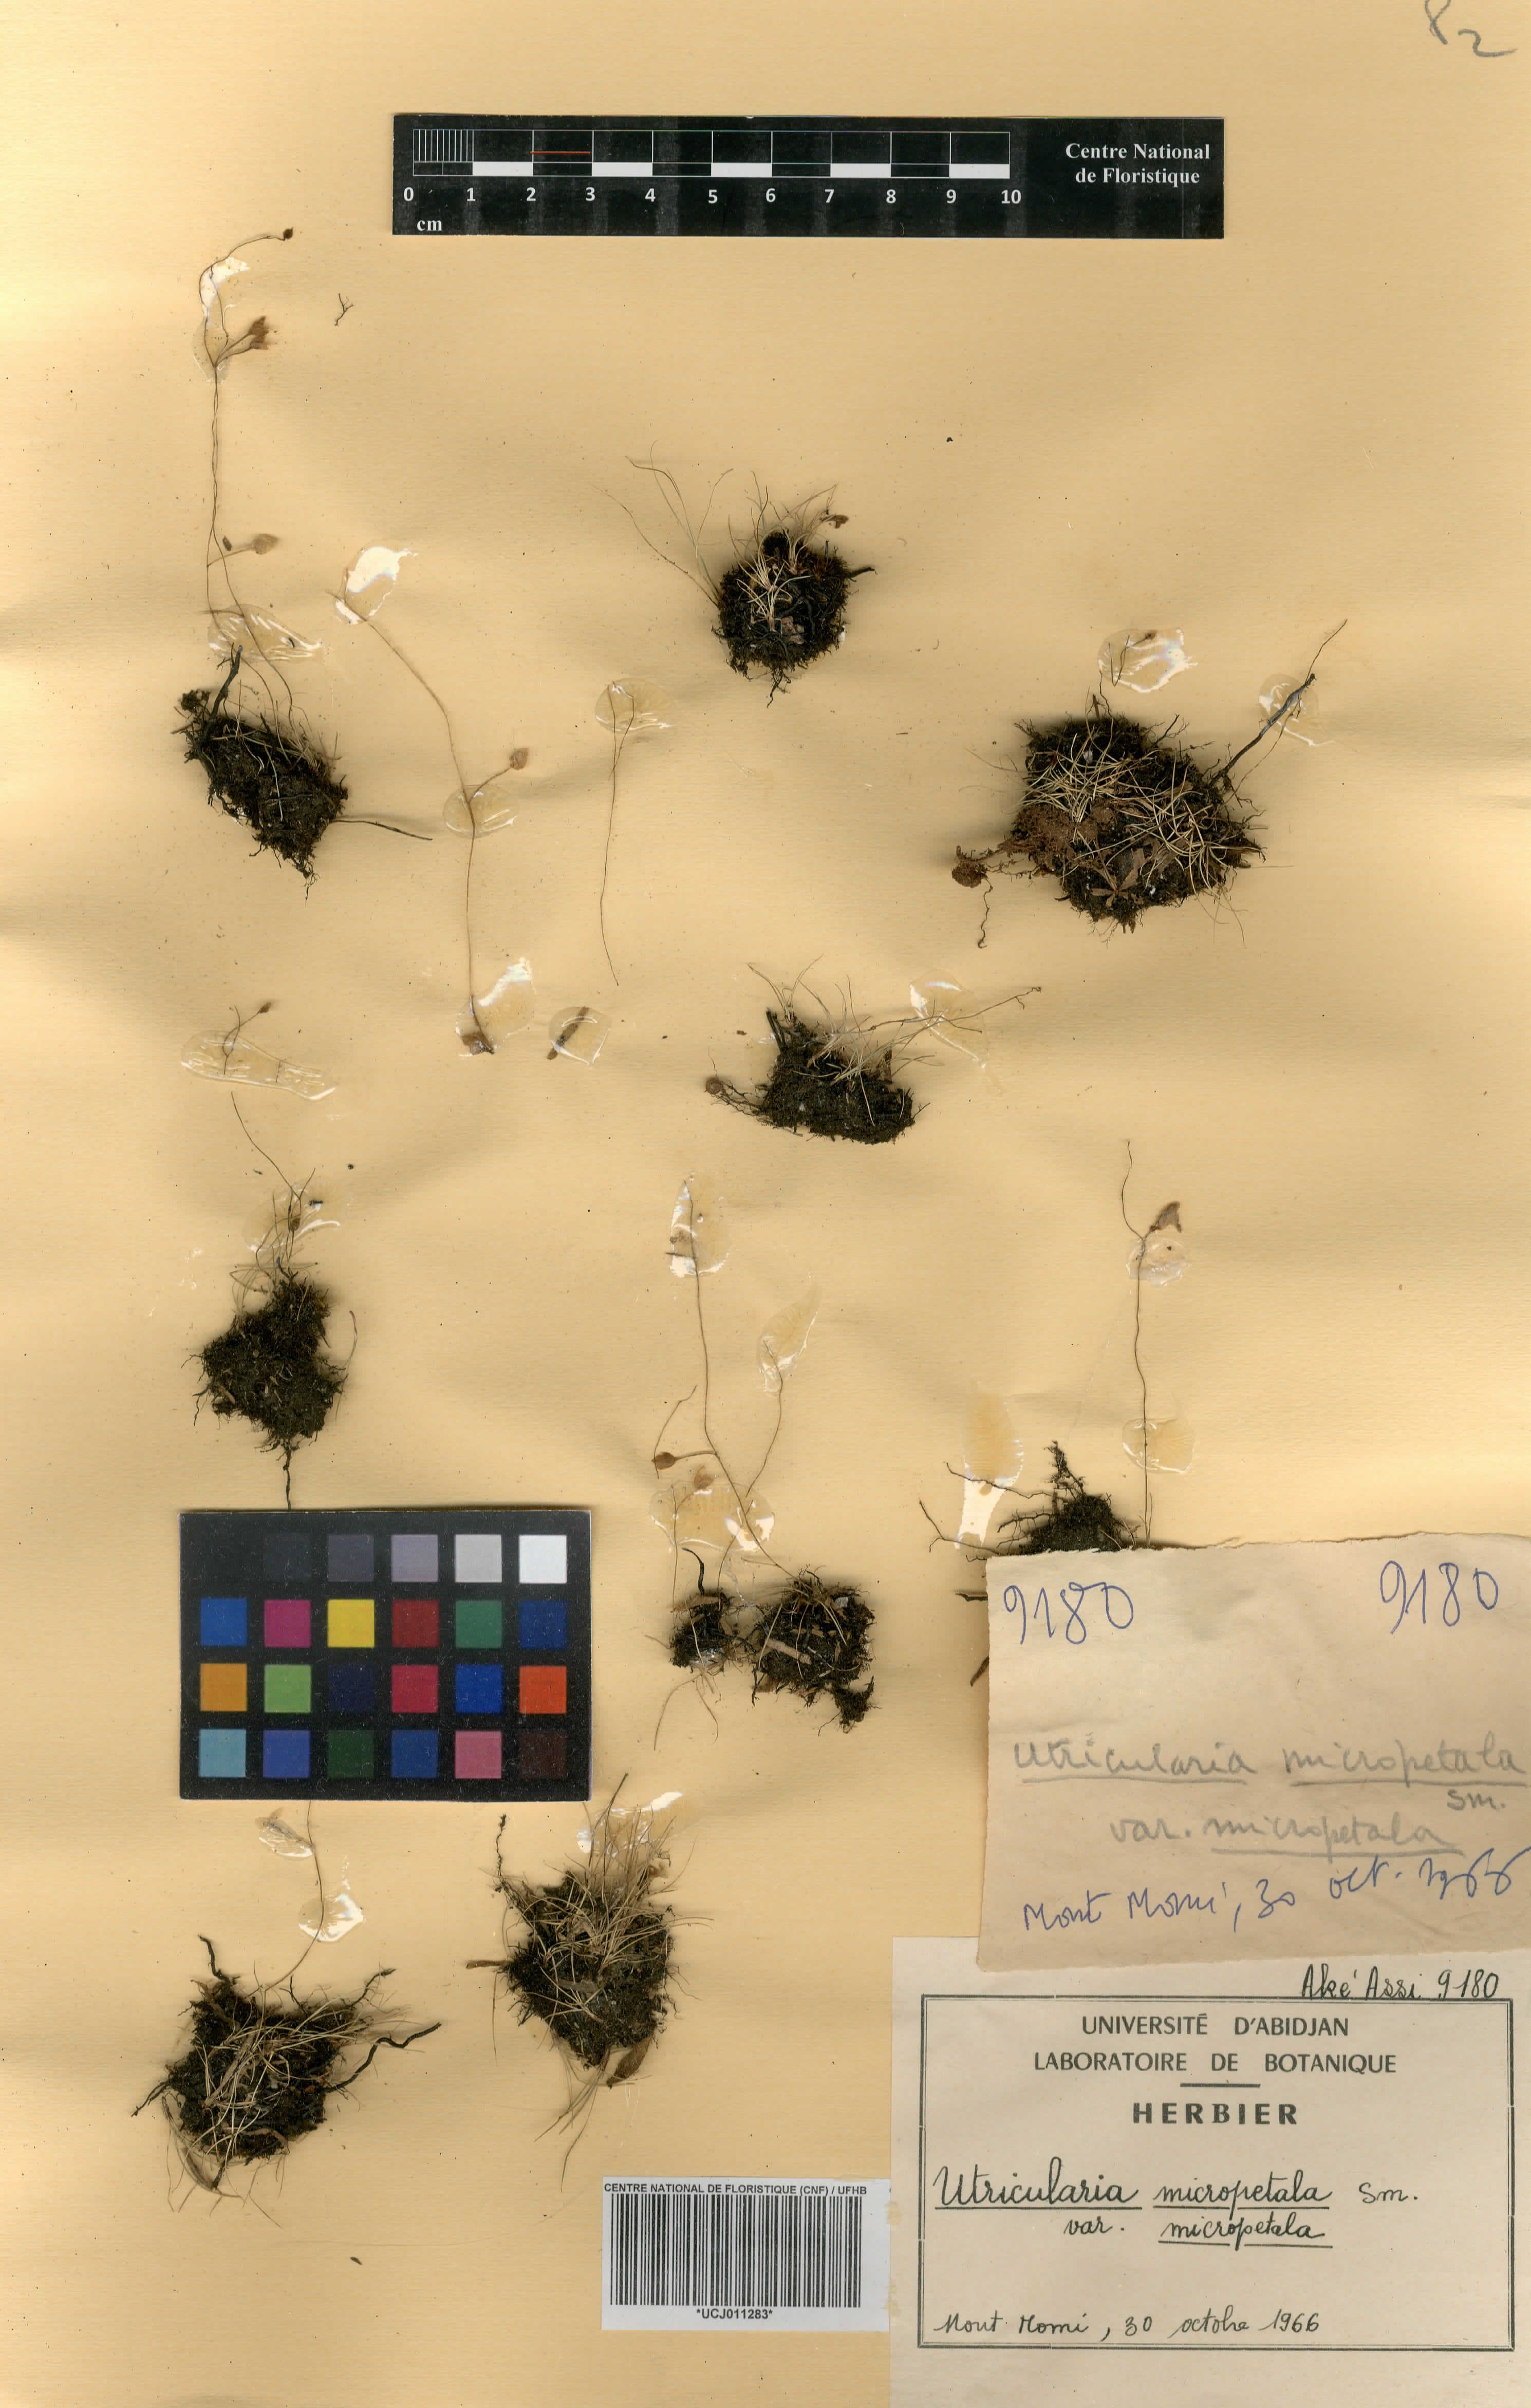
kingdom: Plantae
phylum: Tracheophyta
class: Magnoliopsida
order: Lamiales
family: Lentibulariaceae
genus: Utricularia
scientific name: Utricularia pubescens
